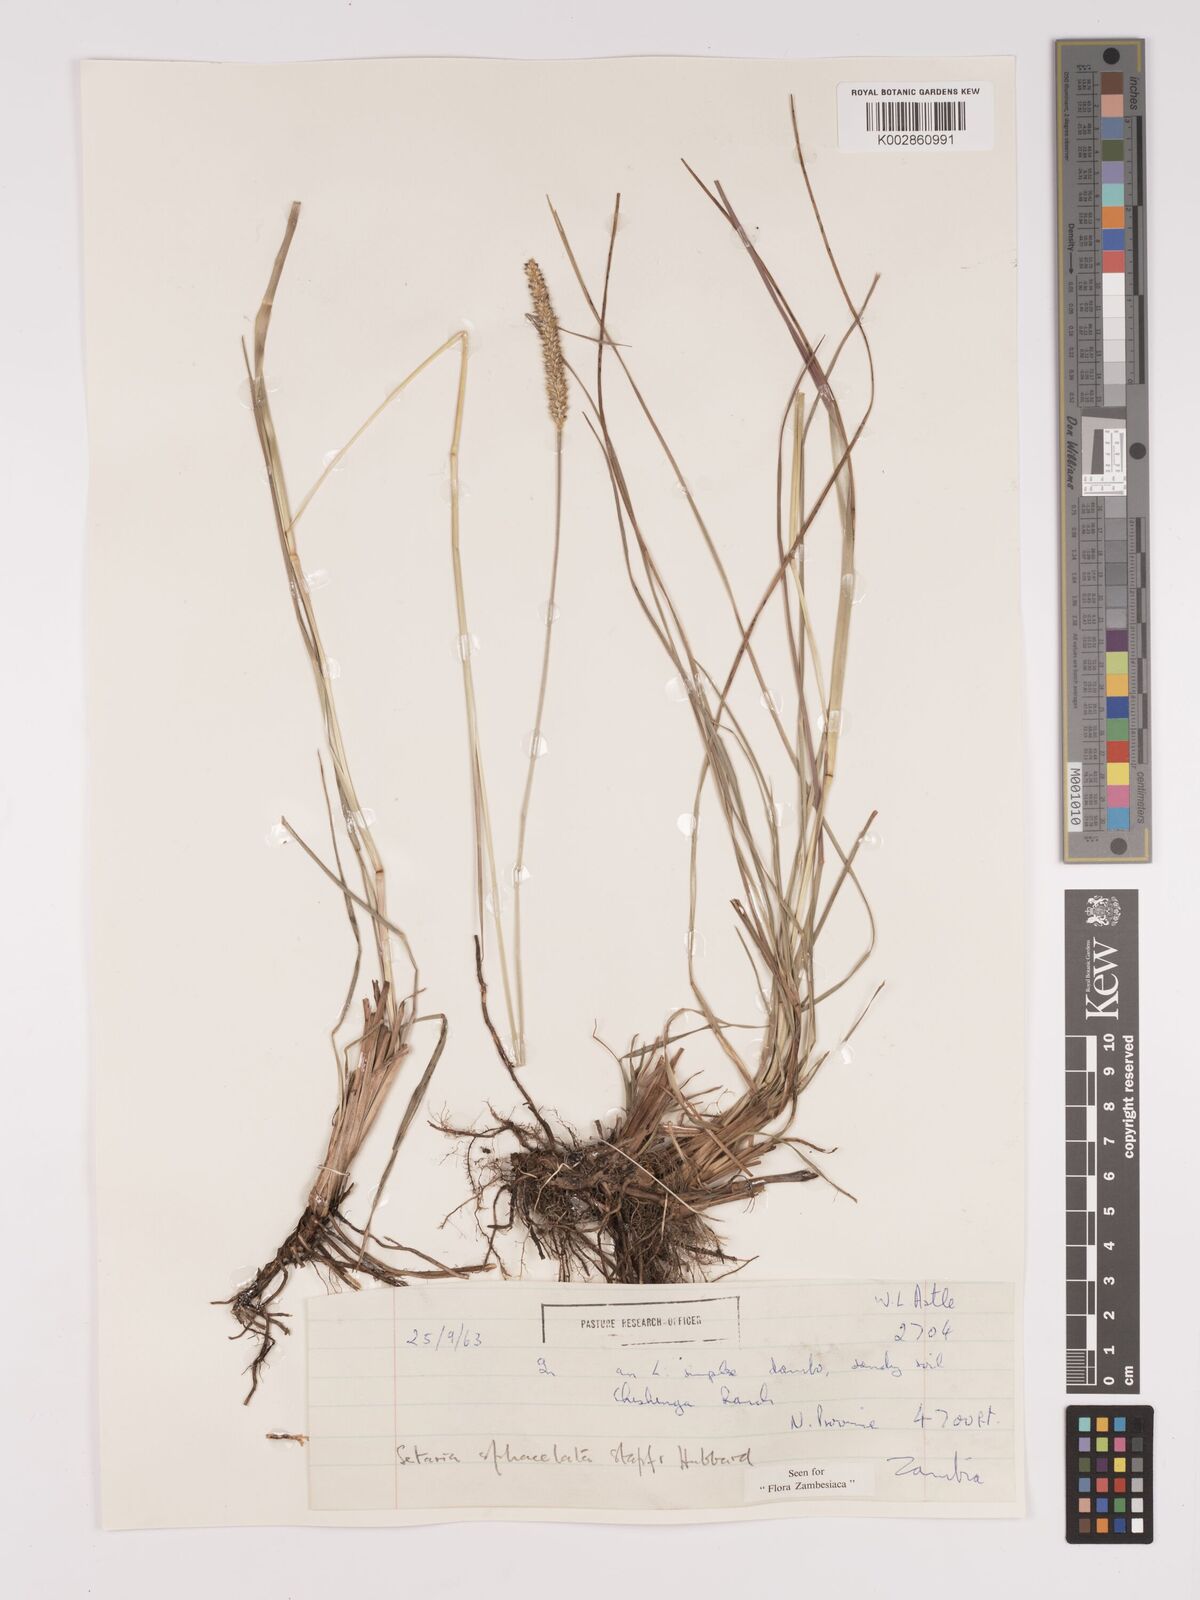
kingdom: Plantae
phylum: Tracheophyta
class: Liliopsida
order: Poales
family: Poaceae
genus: Setaria
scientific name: Setaria
